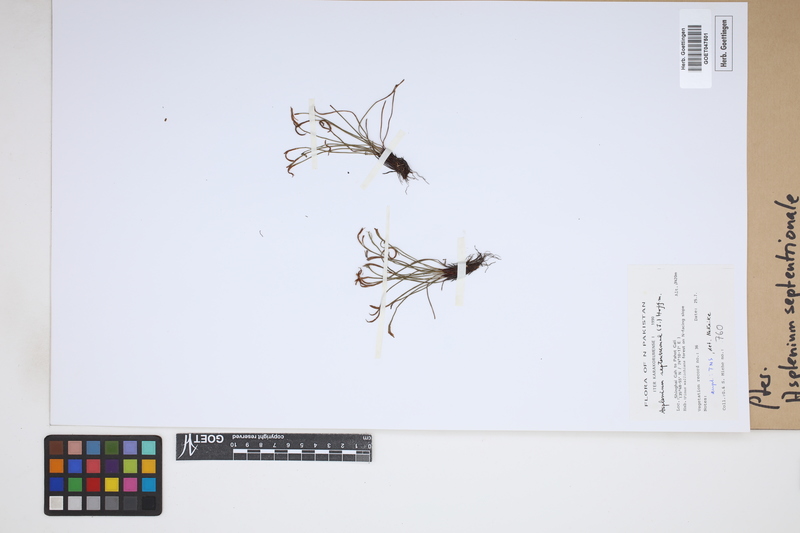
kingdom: Plantae
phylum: Tracheophyta
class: Polypodiopsida
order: Polypodiales
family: Aspleniaceae
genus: Asplenium
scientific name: Asplenium septentrionale
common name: Forked spleenwort
